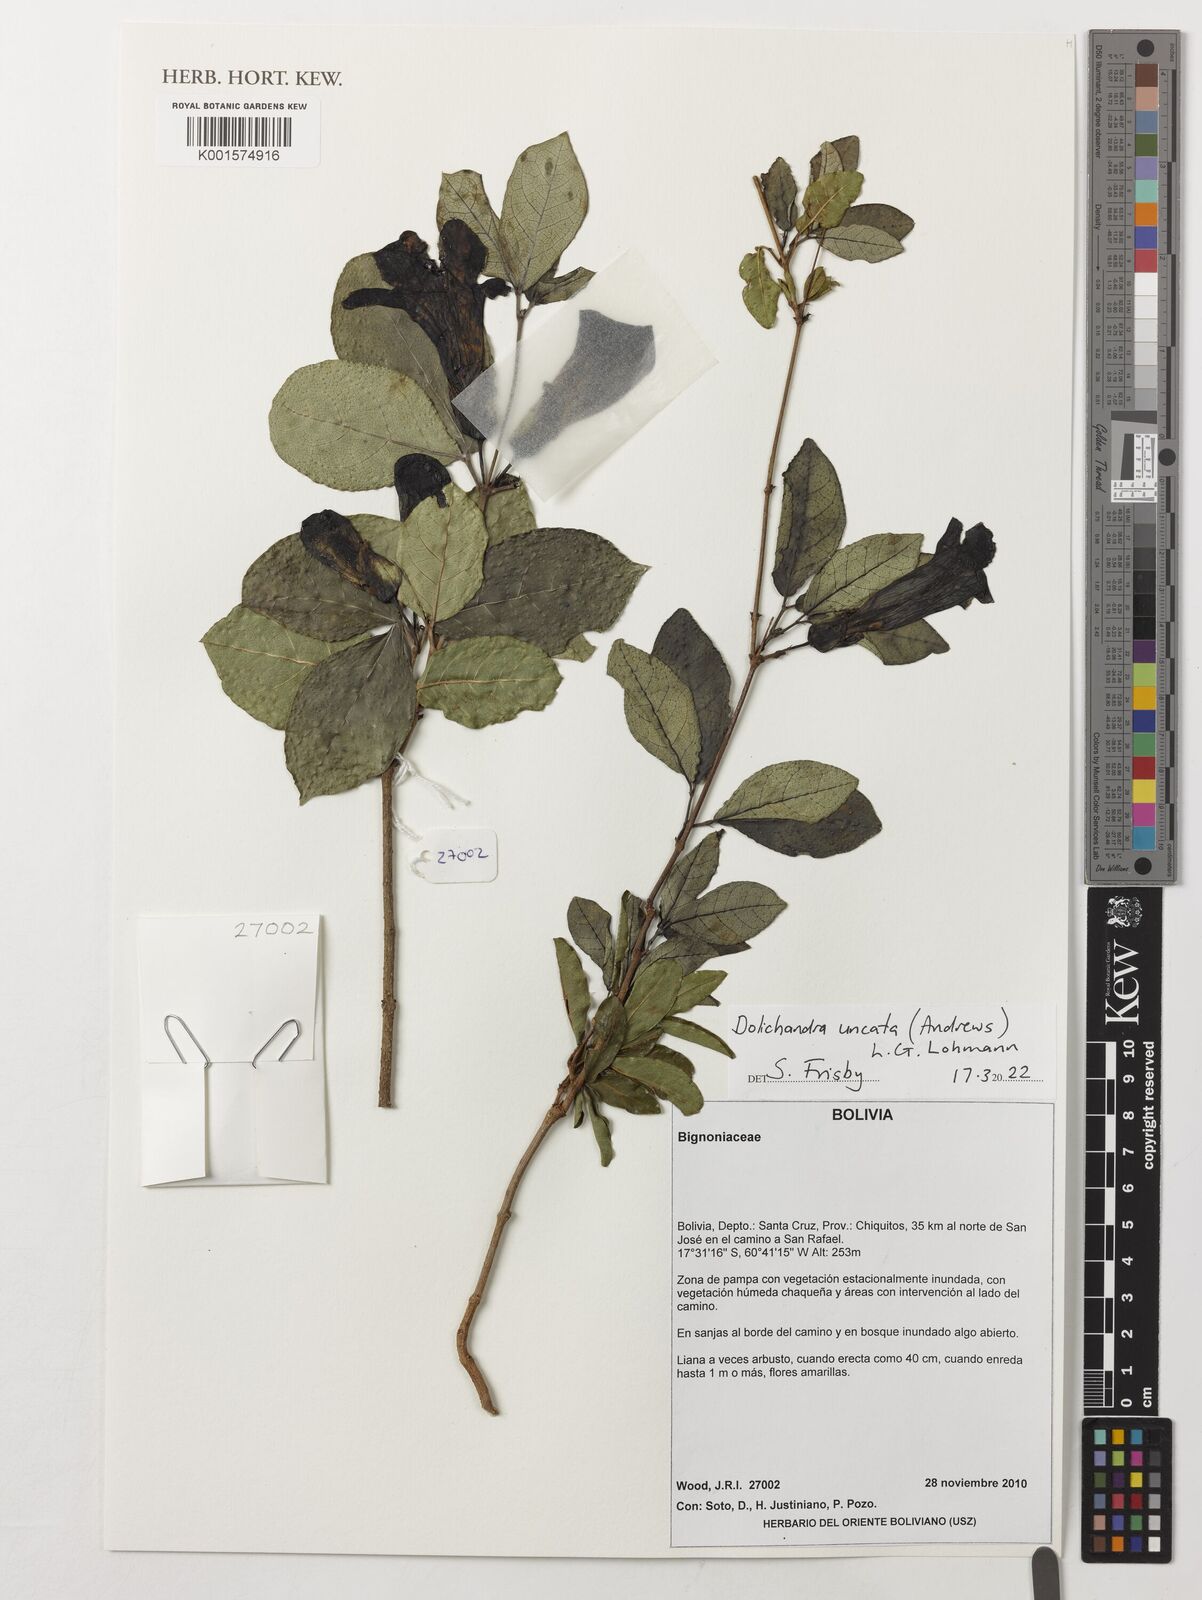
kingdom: Plantae
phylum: Tracheophyta
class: Magnoliopsida
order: Lamiales
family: Bignoniaceae
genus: Dolichandra
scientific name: Dolichandra uncata
